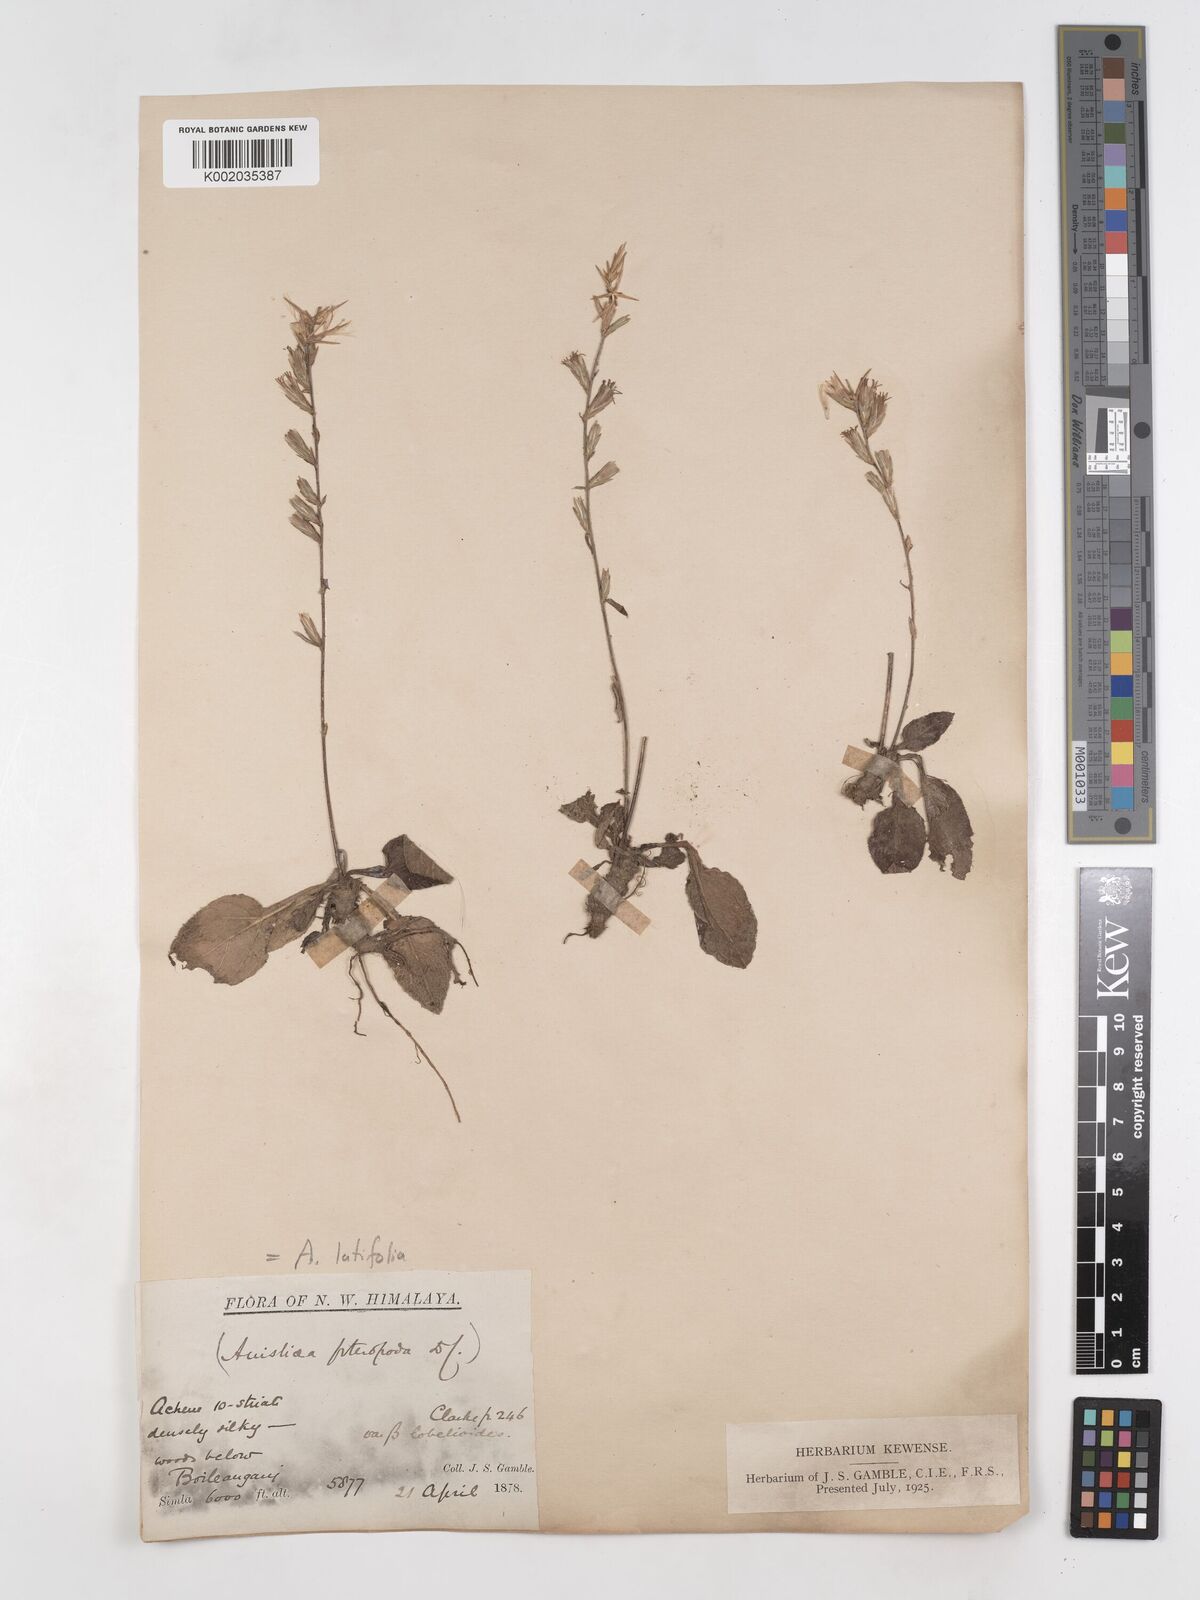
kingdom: Plantae
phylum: Tracheophyta
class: Magnoliopsida
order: Asterales
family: Asteraceae
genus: Ainsliaea
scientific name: Ainsliaea latifolia
